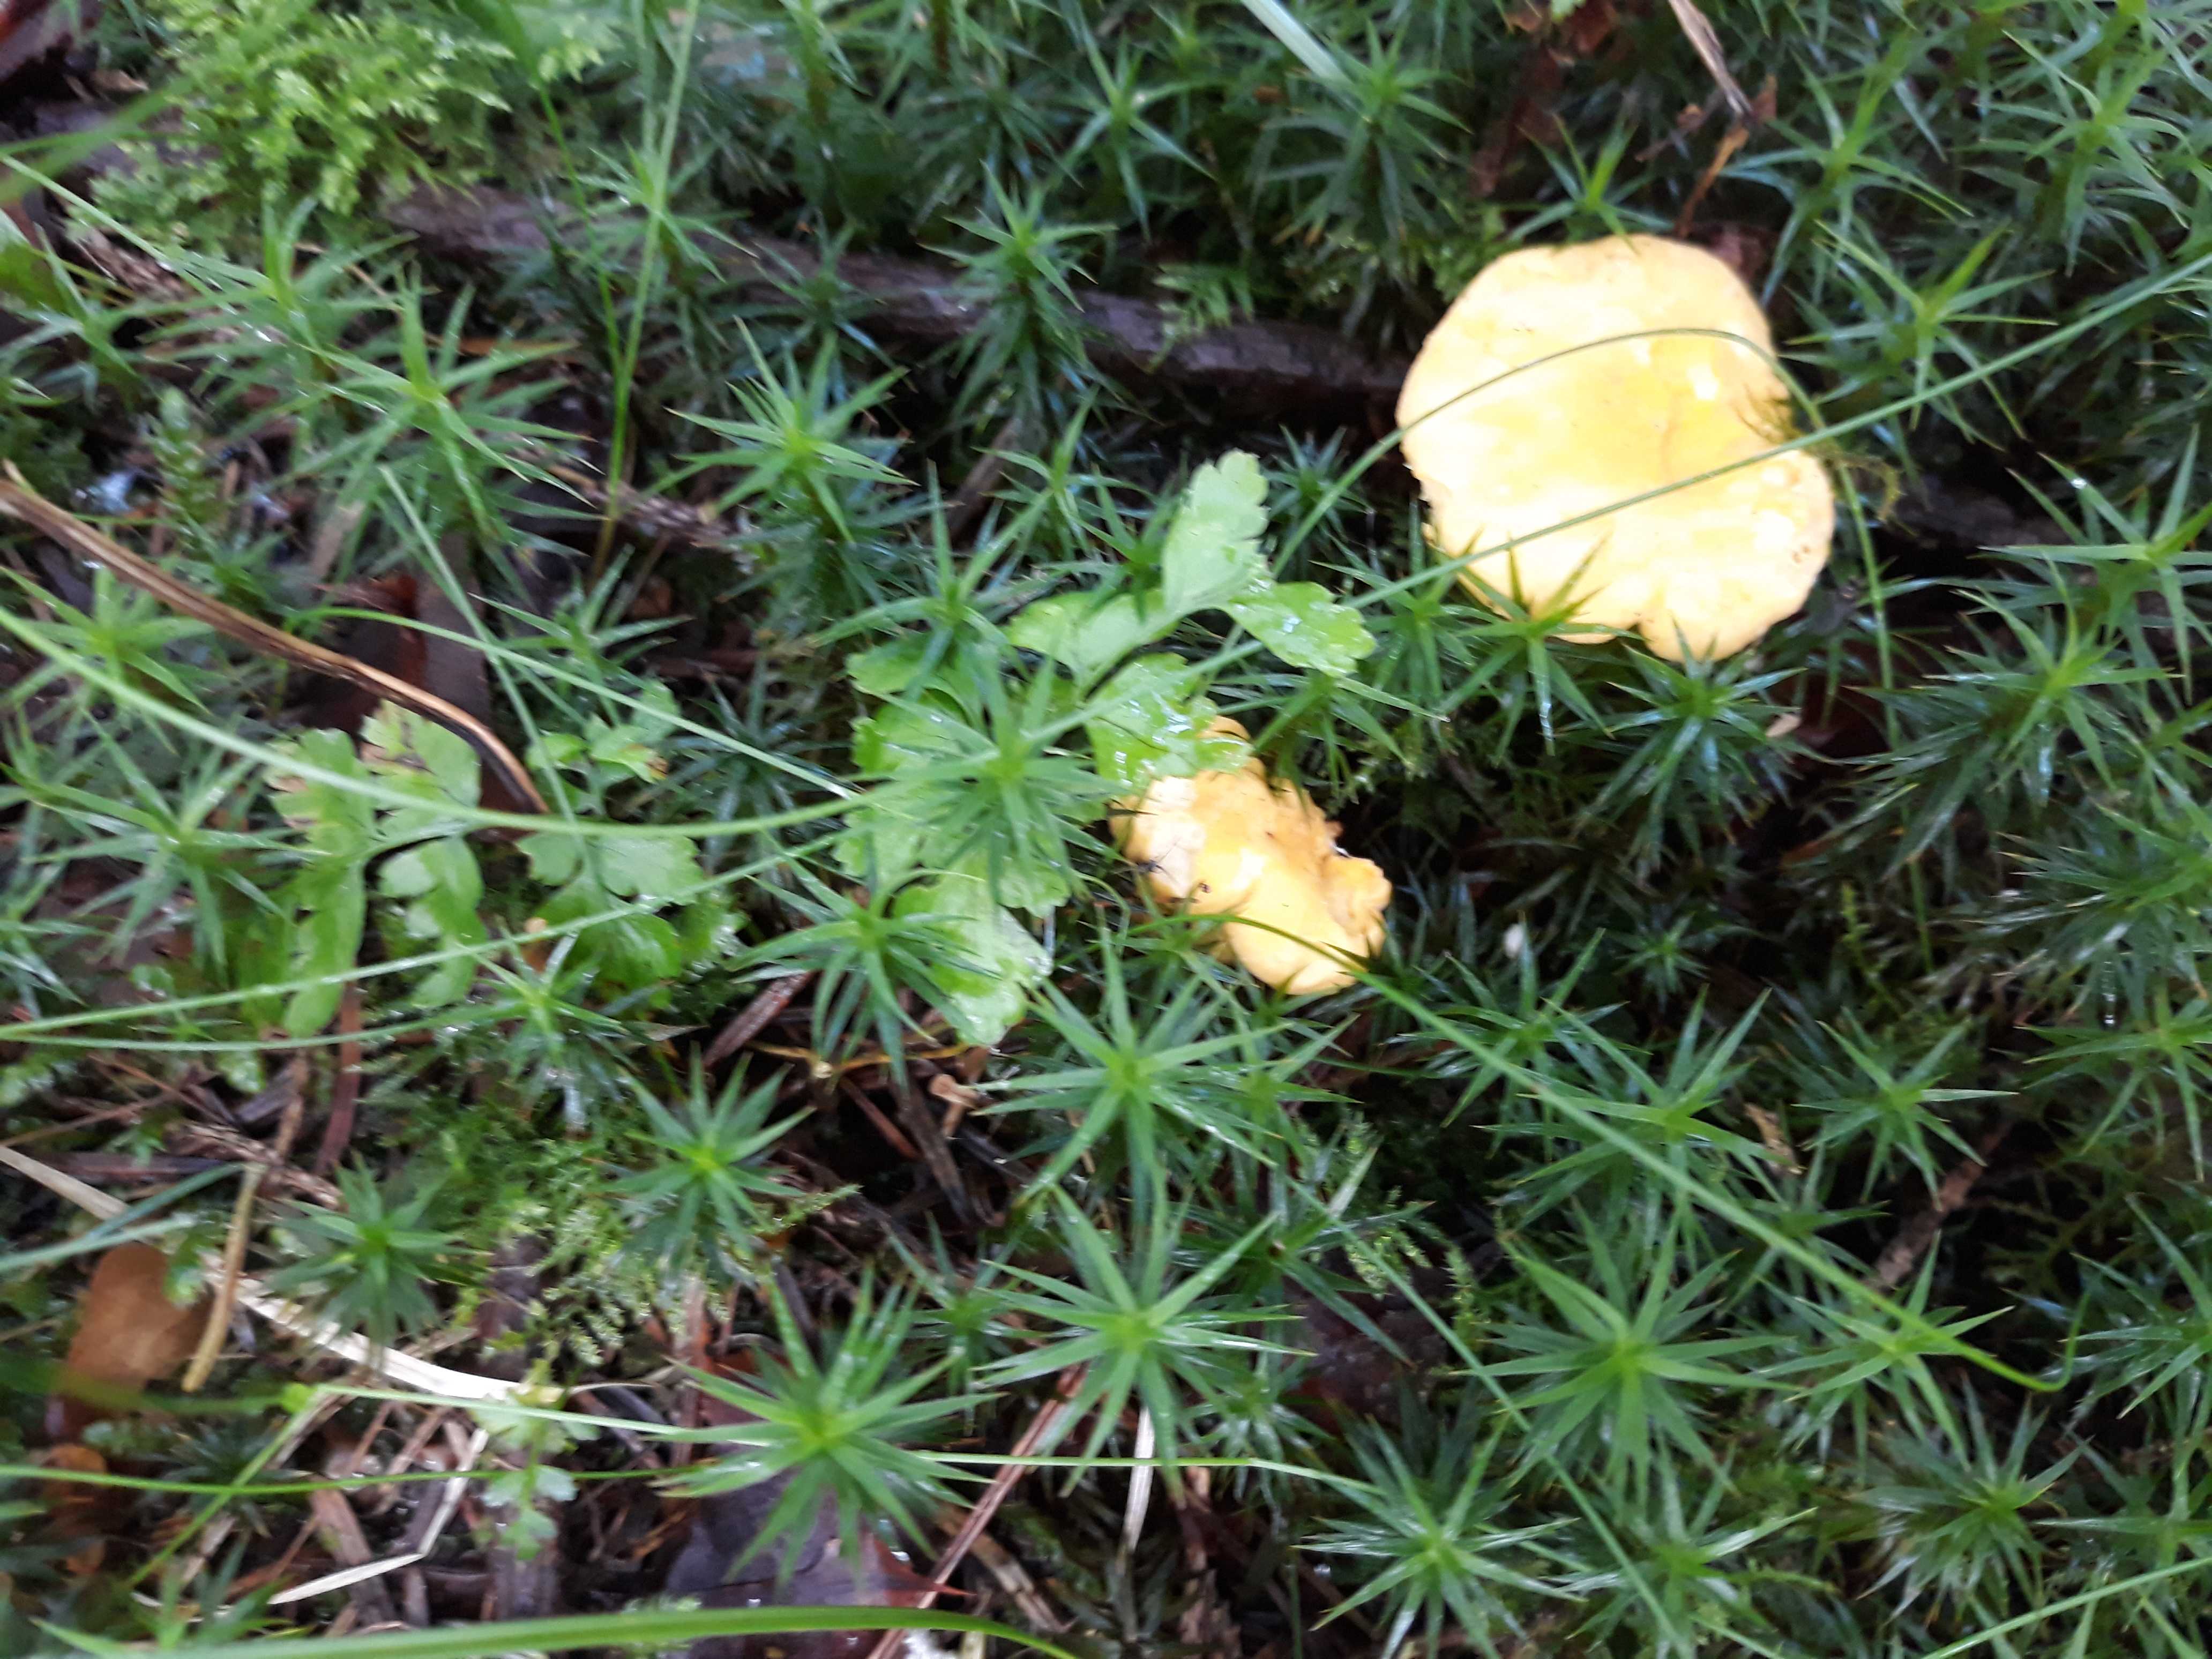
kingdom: Fungi
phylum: Basidiomycota
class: Agaricomycetes
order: Cantharellales
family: Hydnaceae
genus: Cantharellus
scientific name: Cantharellus cibarius
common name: almindelig kantarel
